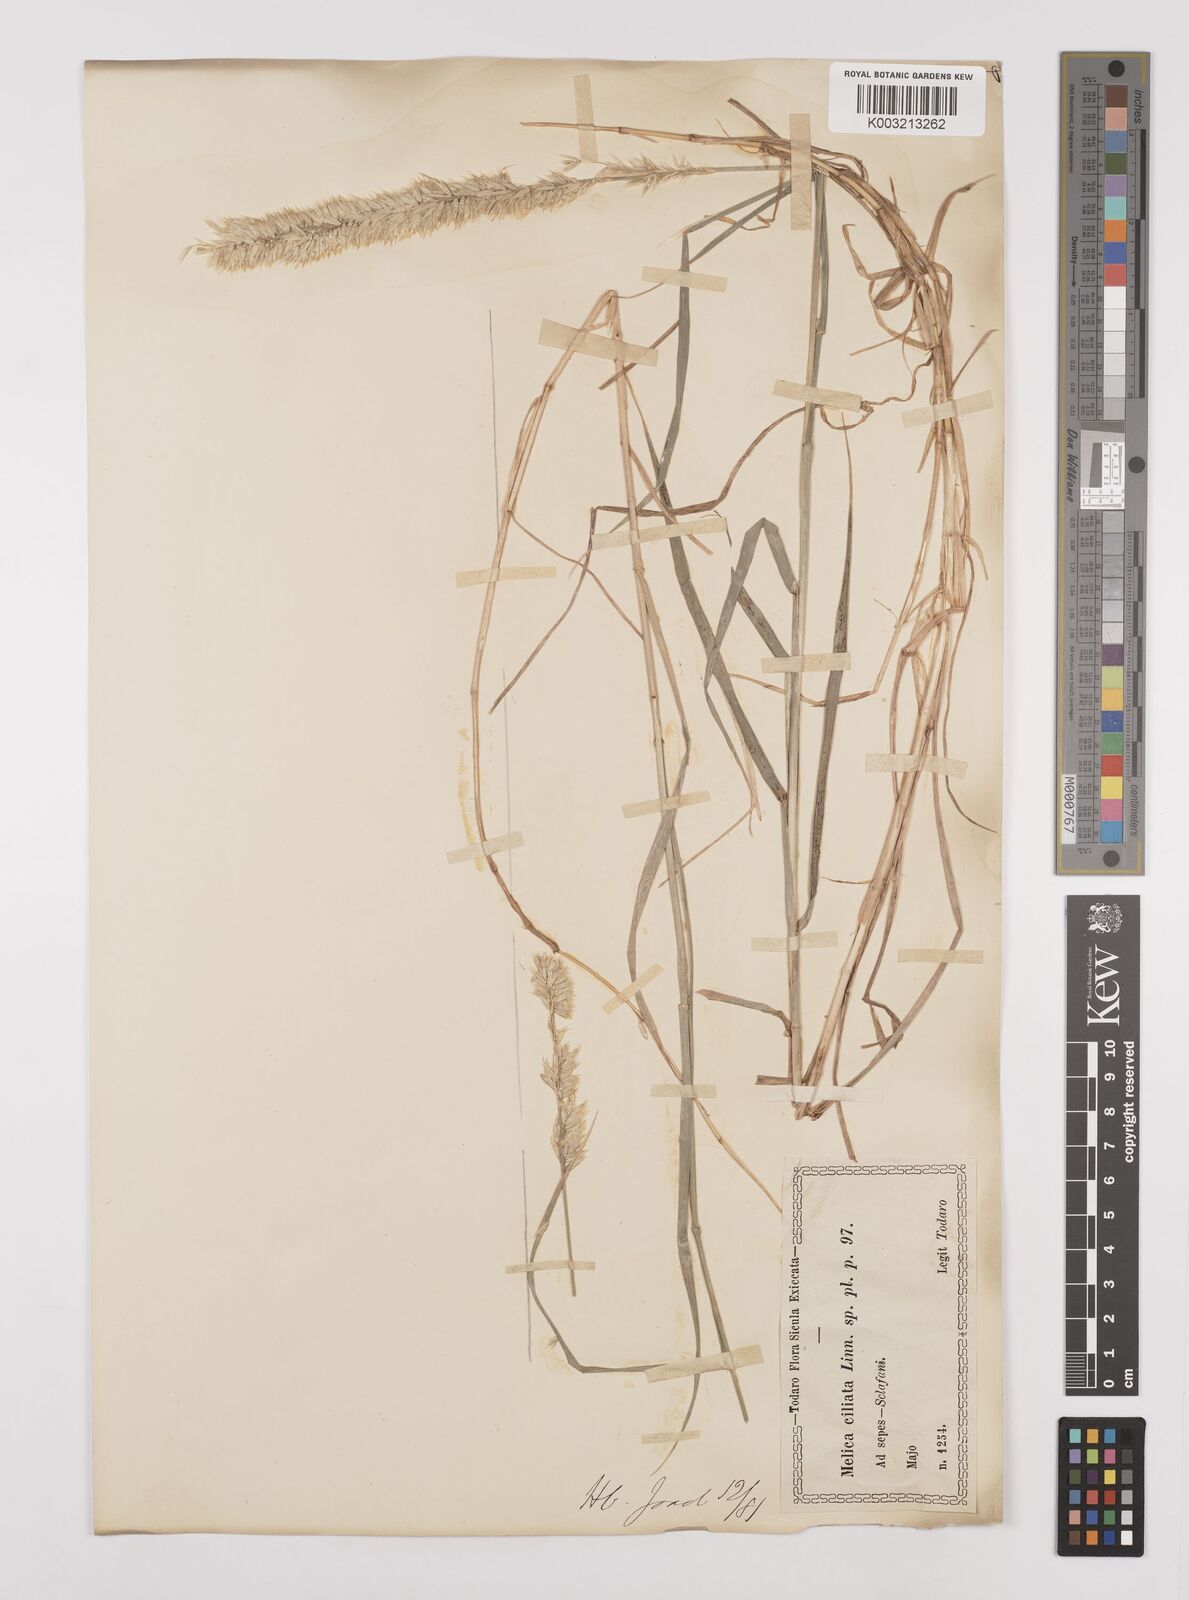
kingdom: Plantae
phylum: Tracheophyta
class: Liliopsida
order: Poales
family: Poaceae
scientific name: Poaceae
